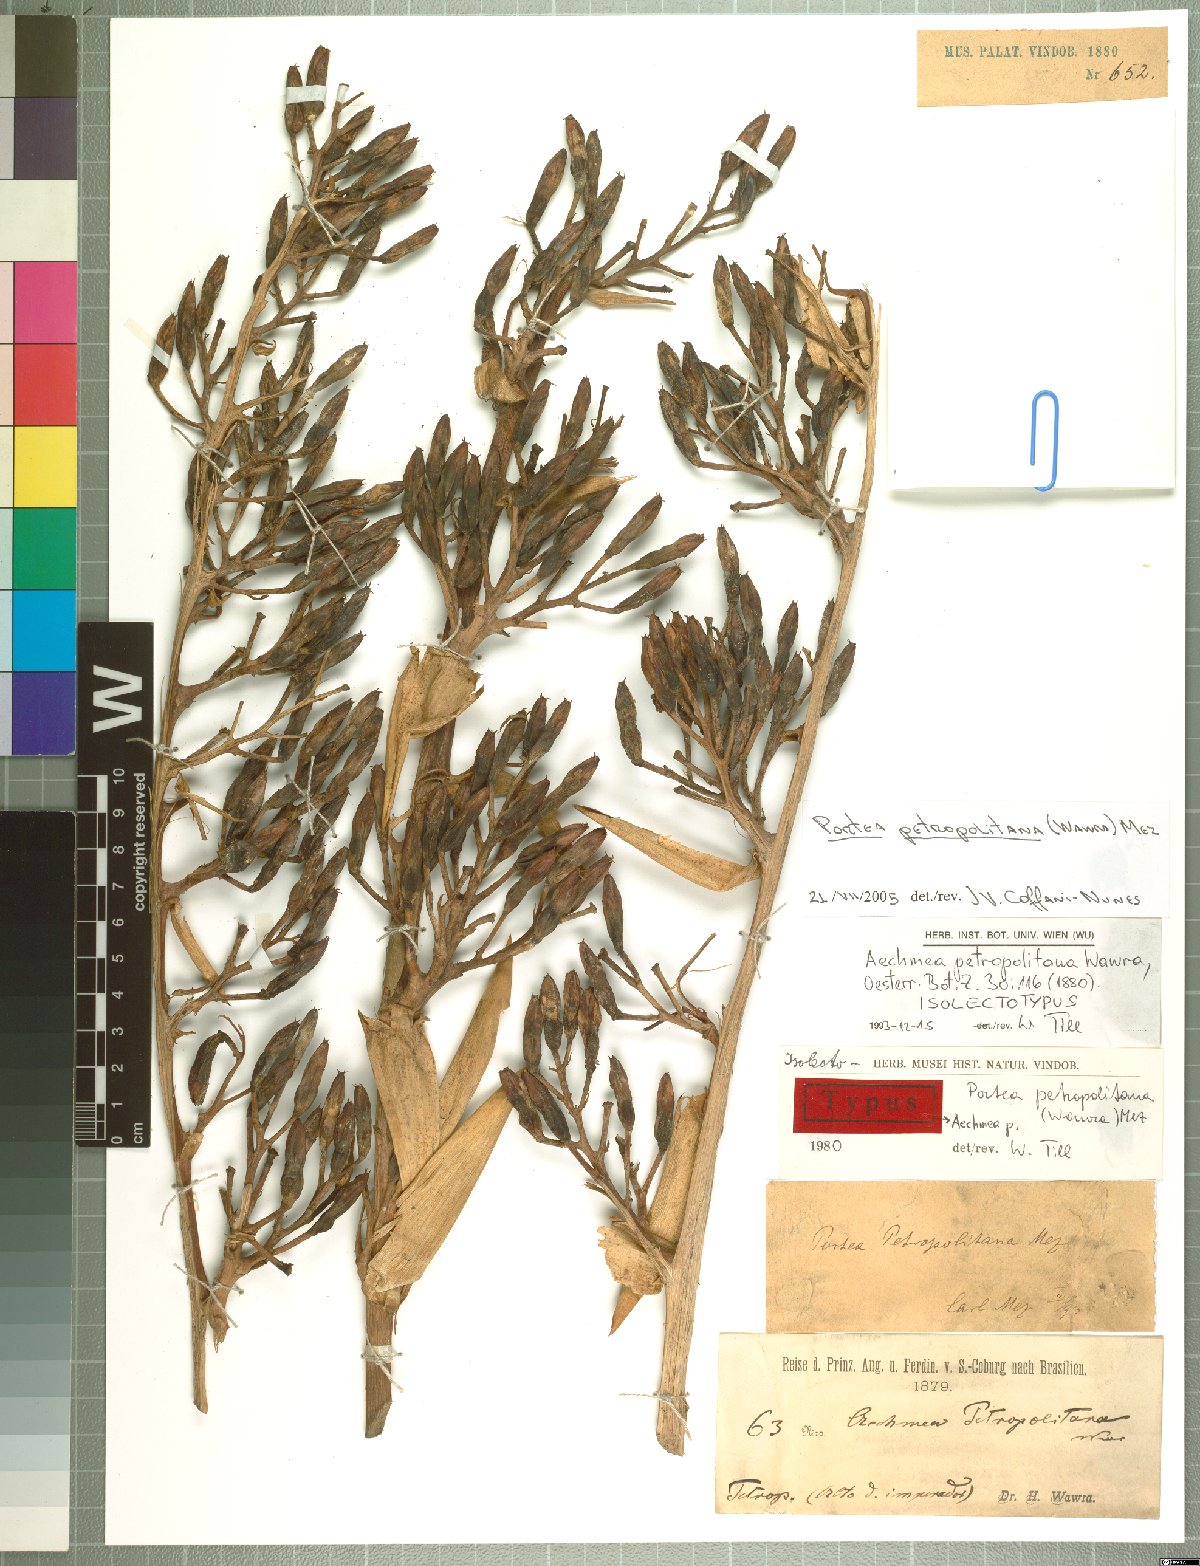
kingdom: Plantae
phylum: Tracheophyta
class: Liliopsida
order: Poales
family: Bromeliaceae
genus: Portea
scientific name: Portea petropolitana
